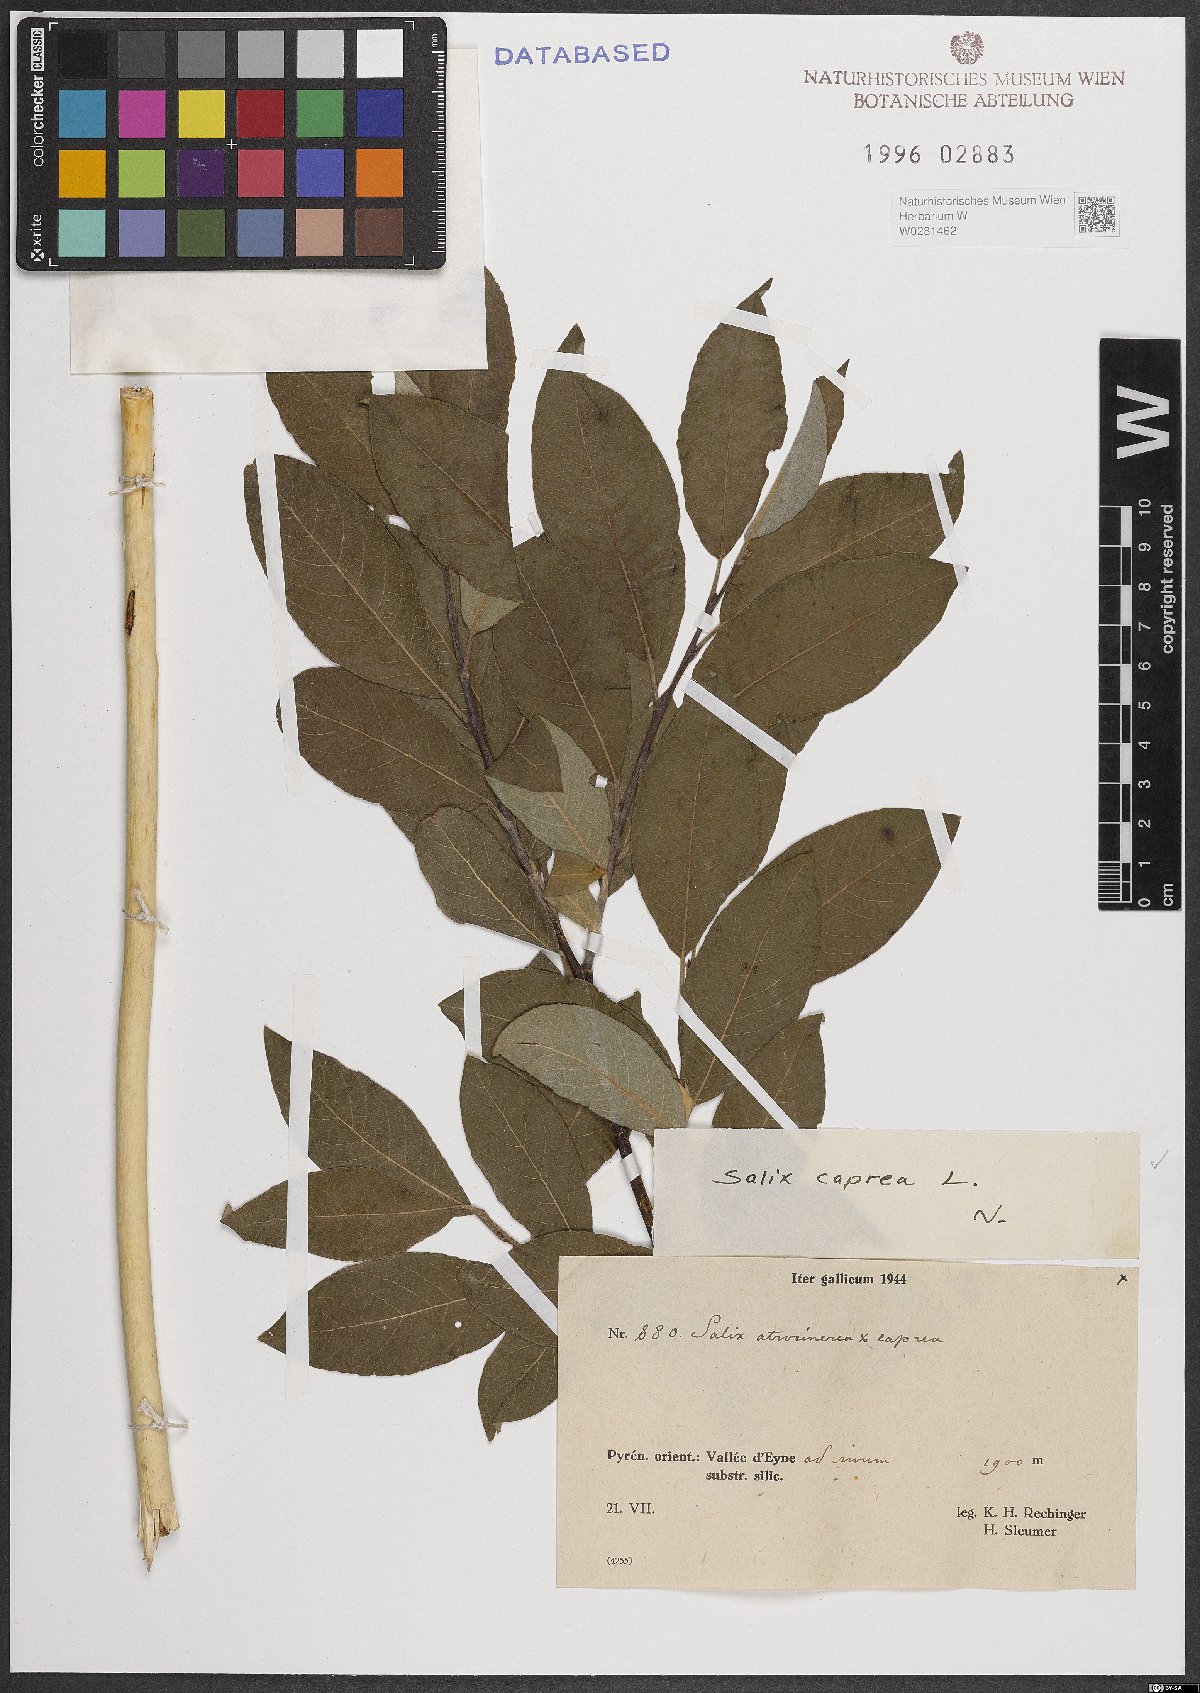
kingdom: Plantae
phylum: Tracheophyta
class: Magnoliopsida
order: Malpighiales
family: Salicaceae
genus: Salix
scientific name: Salix caprea
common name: Goat willow
